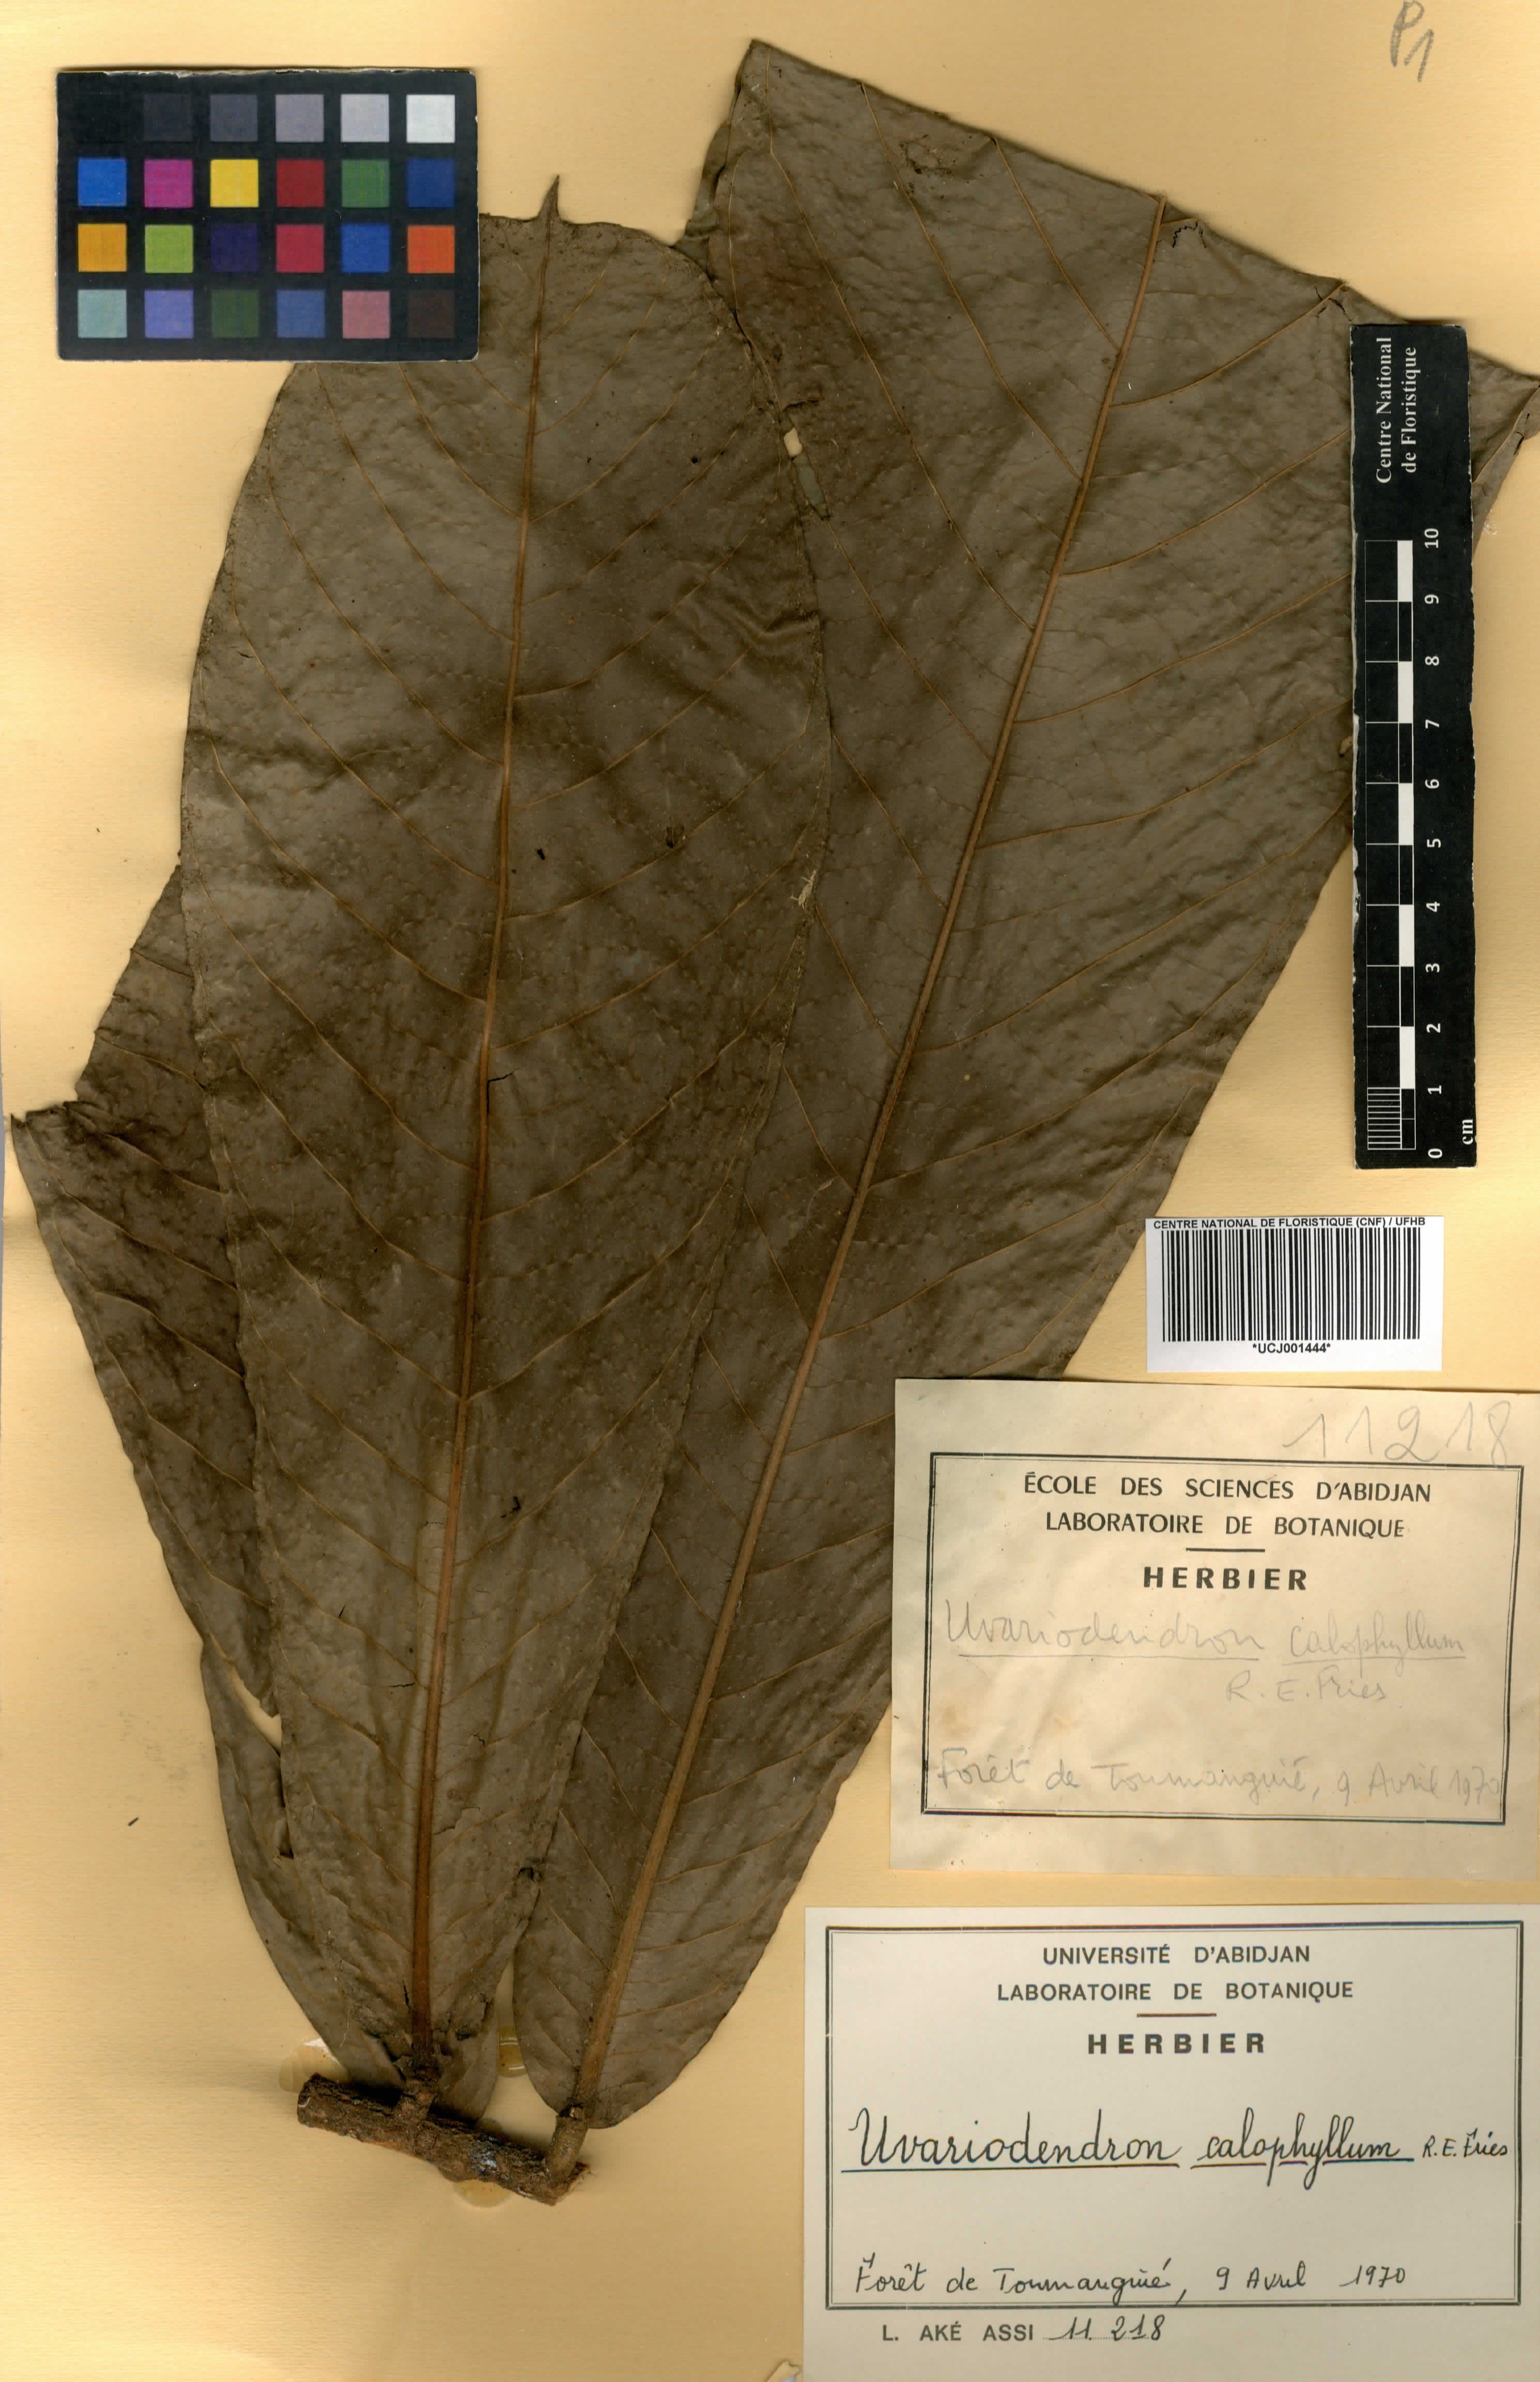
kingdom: Plantae
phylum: Tracheophyta
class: Magnoliopsida
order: Magnoliales
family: Annonaceae
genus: Uvariodendron
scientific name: Uvariodendron calophyllum
